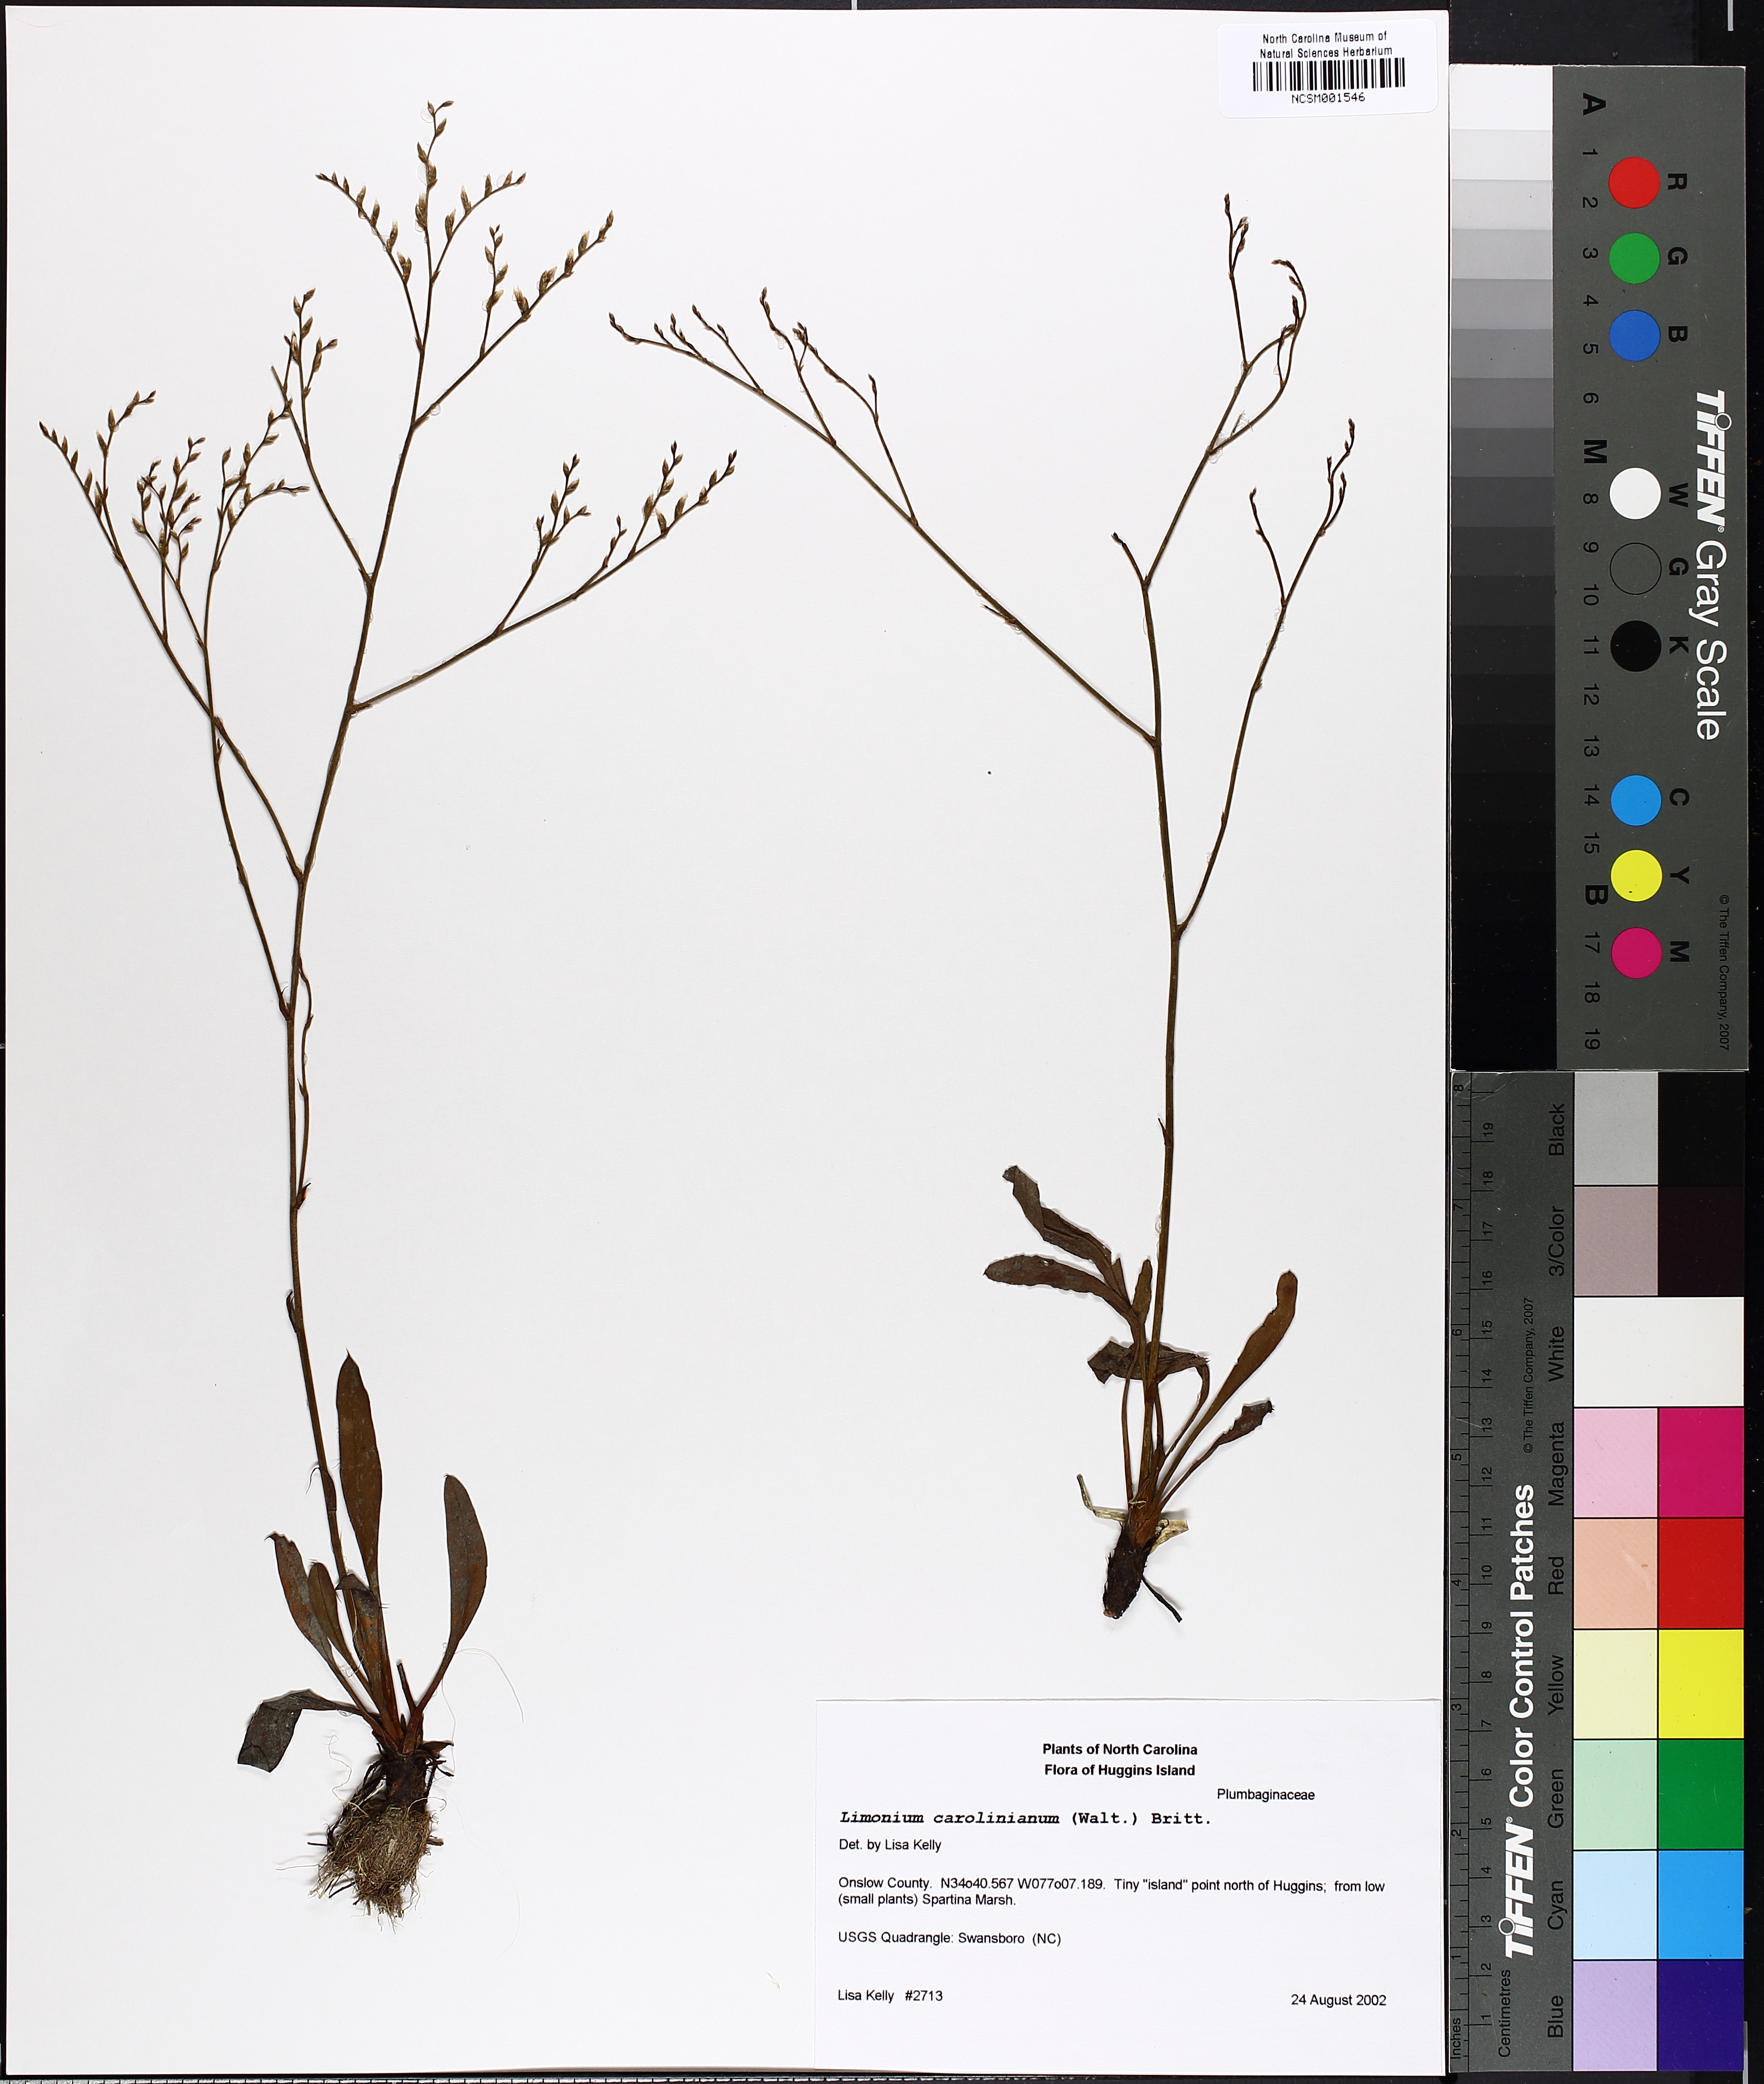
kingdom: Plantae
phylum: Tracheophyta
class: Magnoliopsida
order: Caryophyllales
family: Plumbaginaceae
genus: Limonium
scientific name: Limonium carolinianum
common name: Carolina sea lavender
